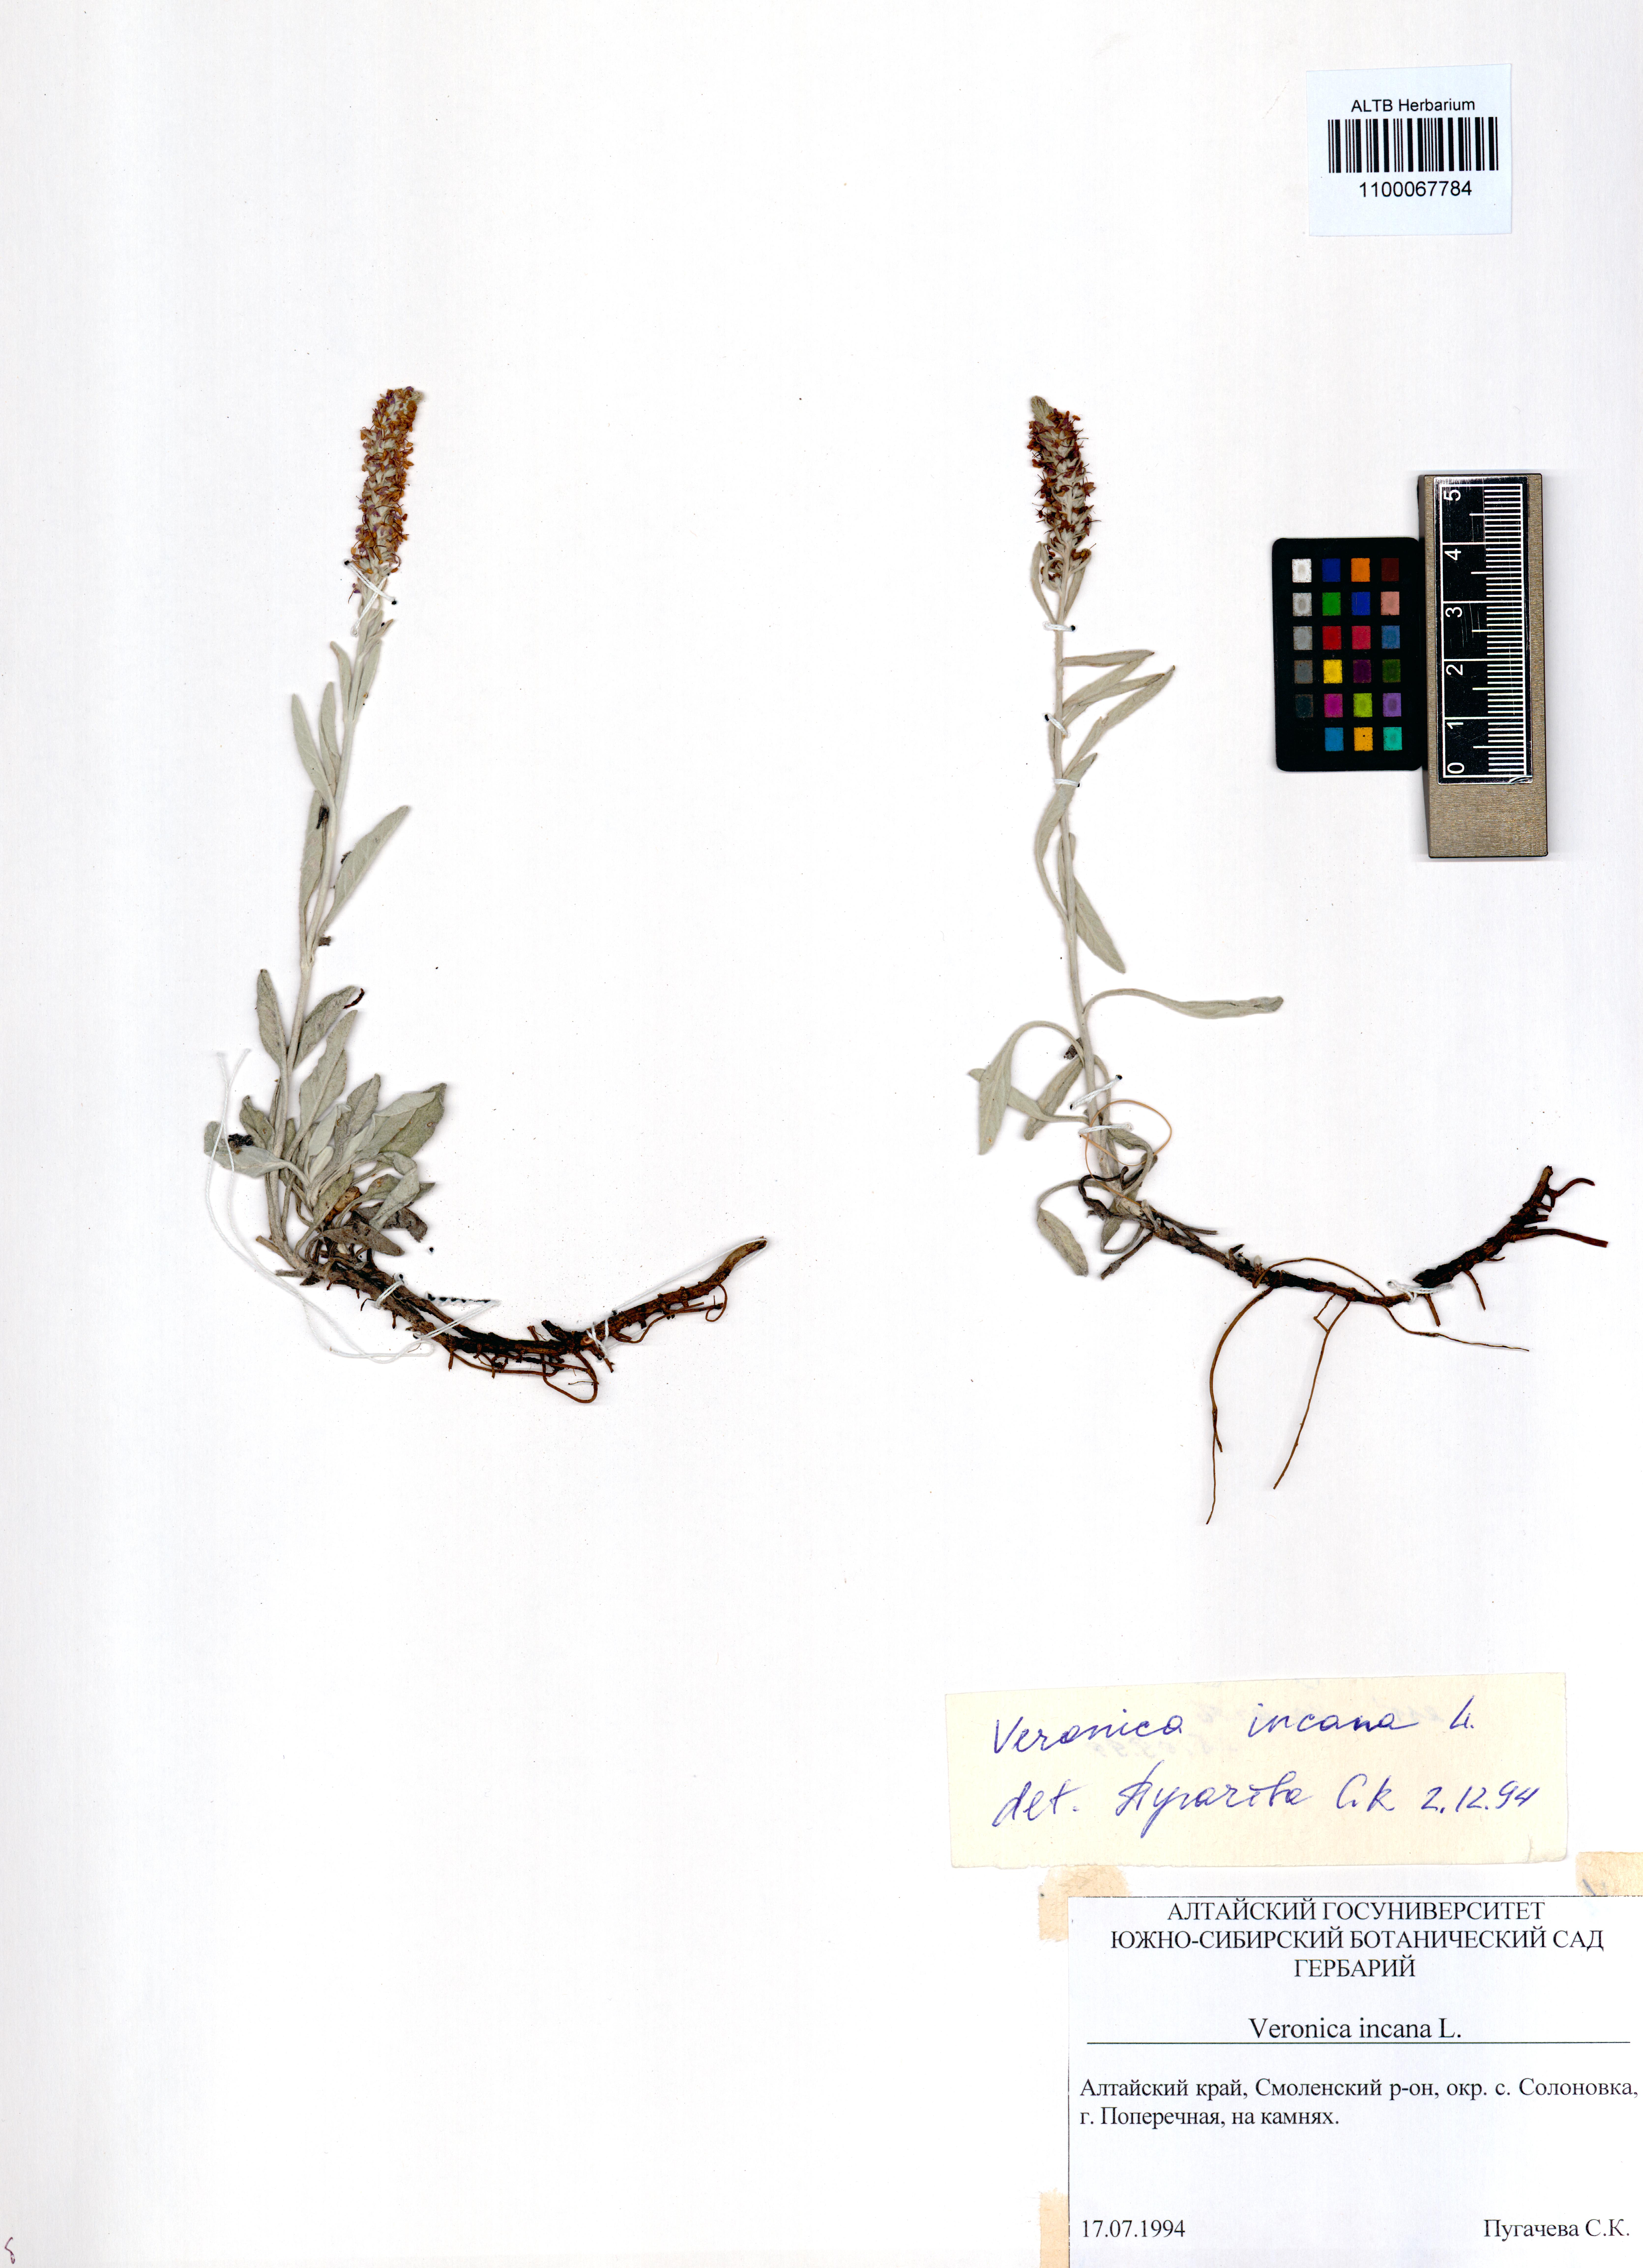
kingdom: Plantae
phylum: Tracheophyta
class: Magnoliopsida
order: Lamiales
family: Plantaginaceae
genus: Veronica
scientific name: Veronica incana
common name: Silver speedwell
